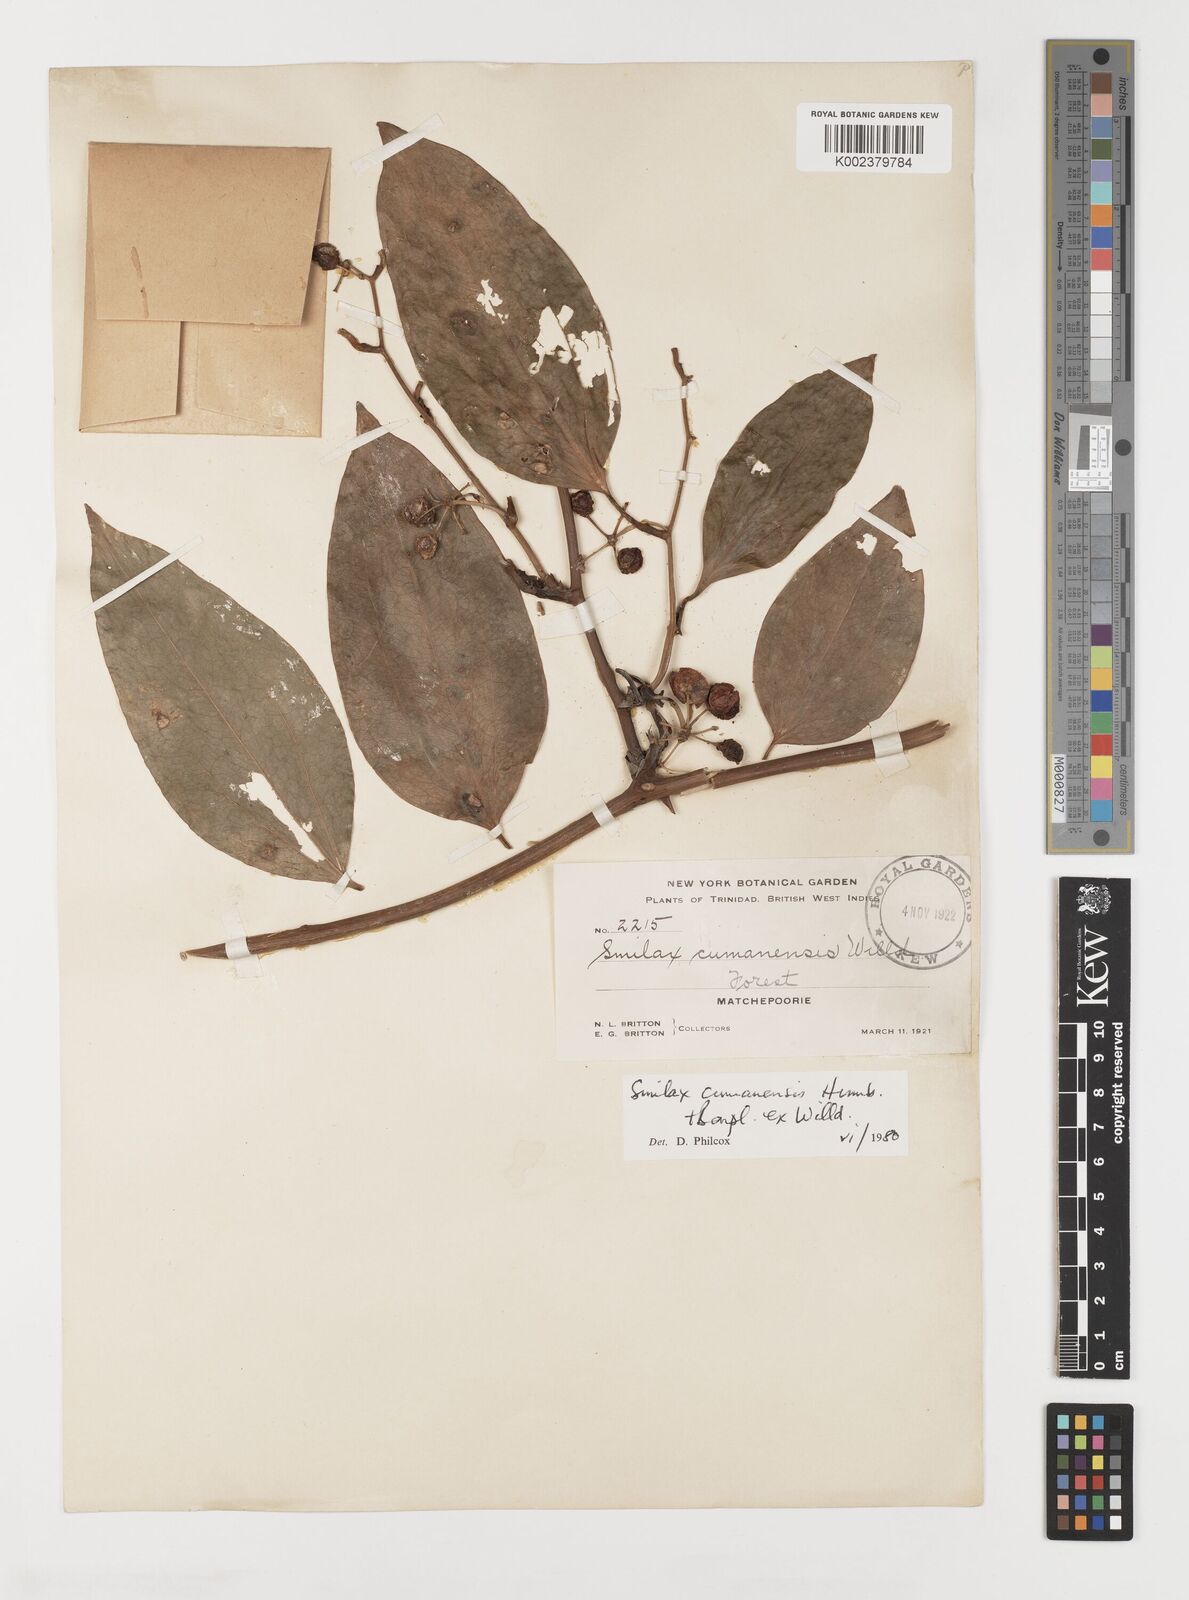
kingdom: Plantae
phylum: Tracheophyta
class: Liliopsida
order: Liliales
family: Smilacaceae
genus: Smilax
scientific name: Smilax oblongata
